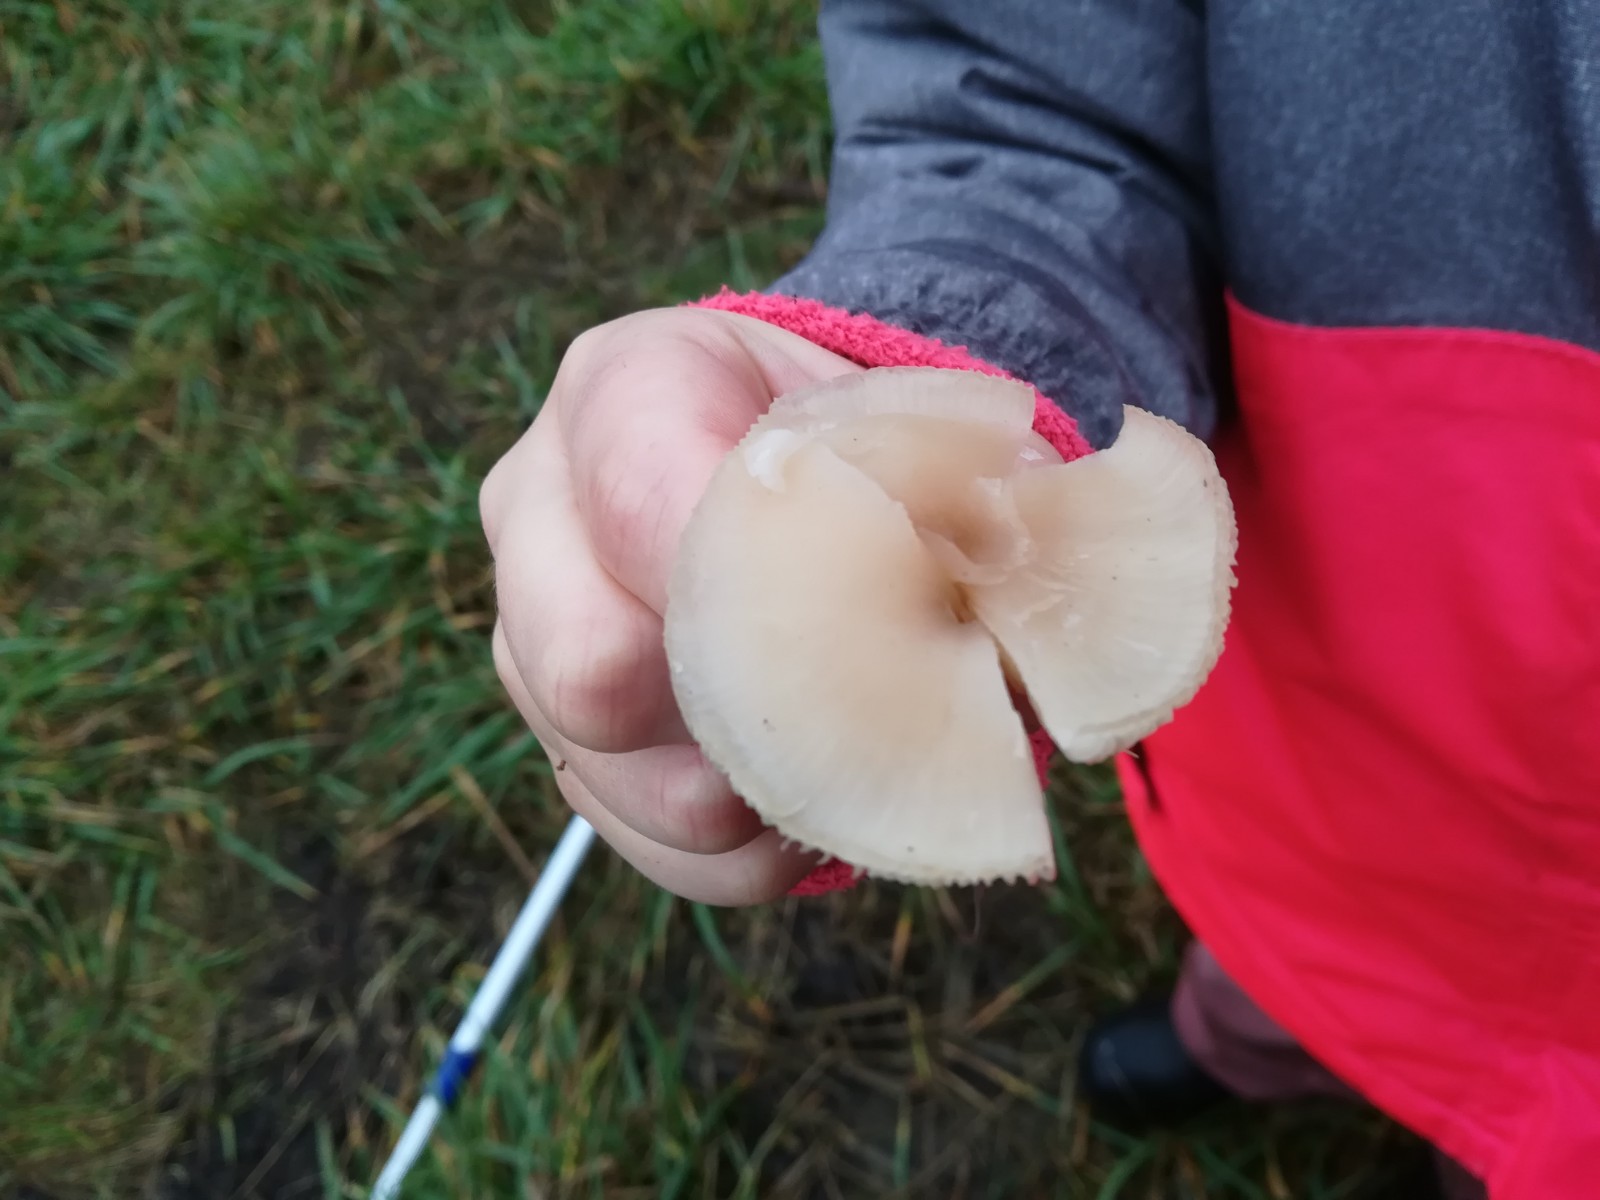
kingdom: Fungi
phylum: Basidiomycota
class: Agaricomycetes
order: Agaricales
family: Tricholomataceae
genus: Clitocybe
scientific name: Clitocybe fragrans
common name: vellugtende tragthat
